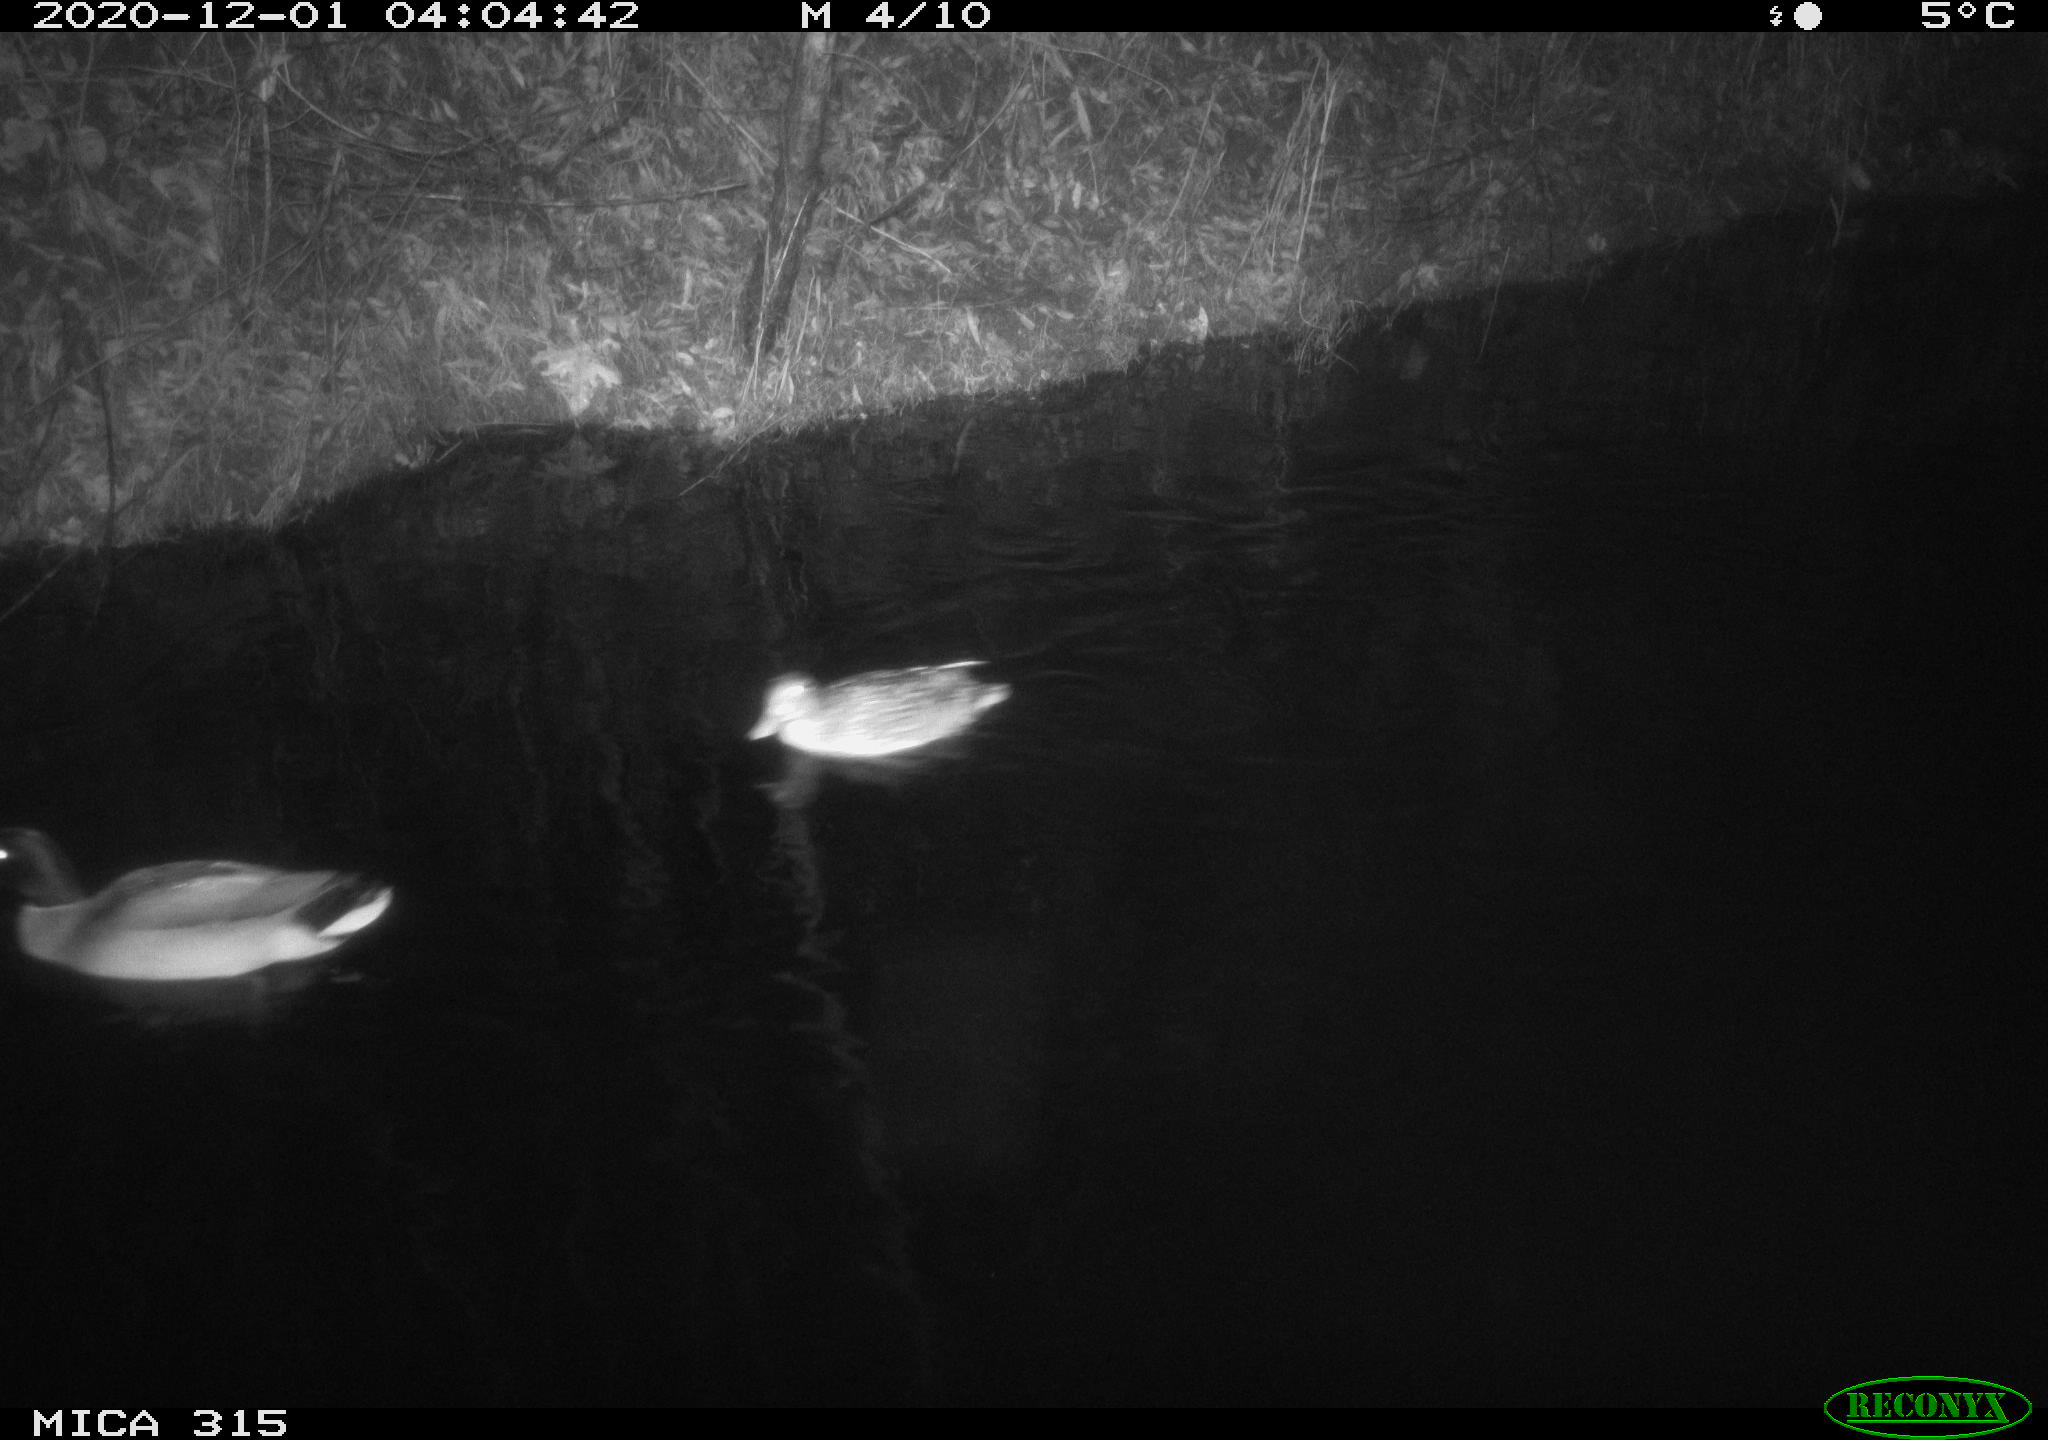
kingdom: Animalia
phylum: Chordata
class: Aves
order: Anseriformes
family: Anatidae
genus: Anas
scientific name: Anas platyrhynchos
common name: Mallard
